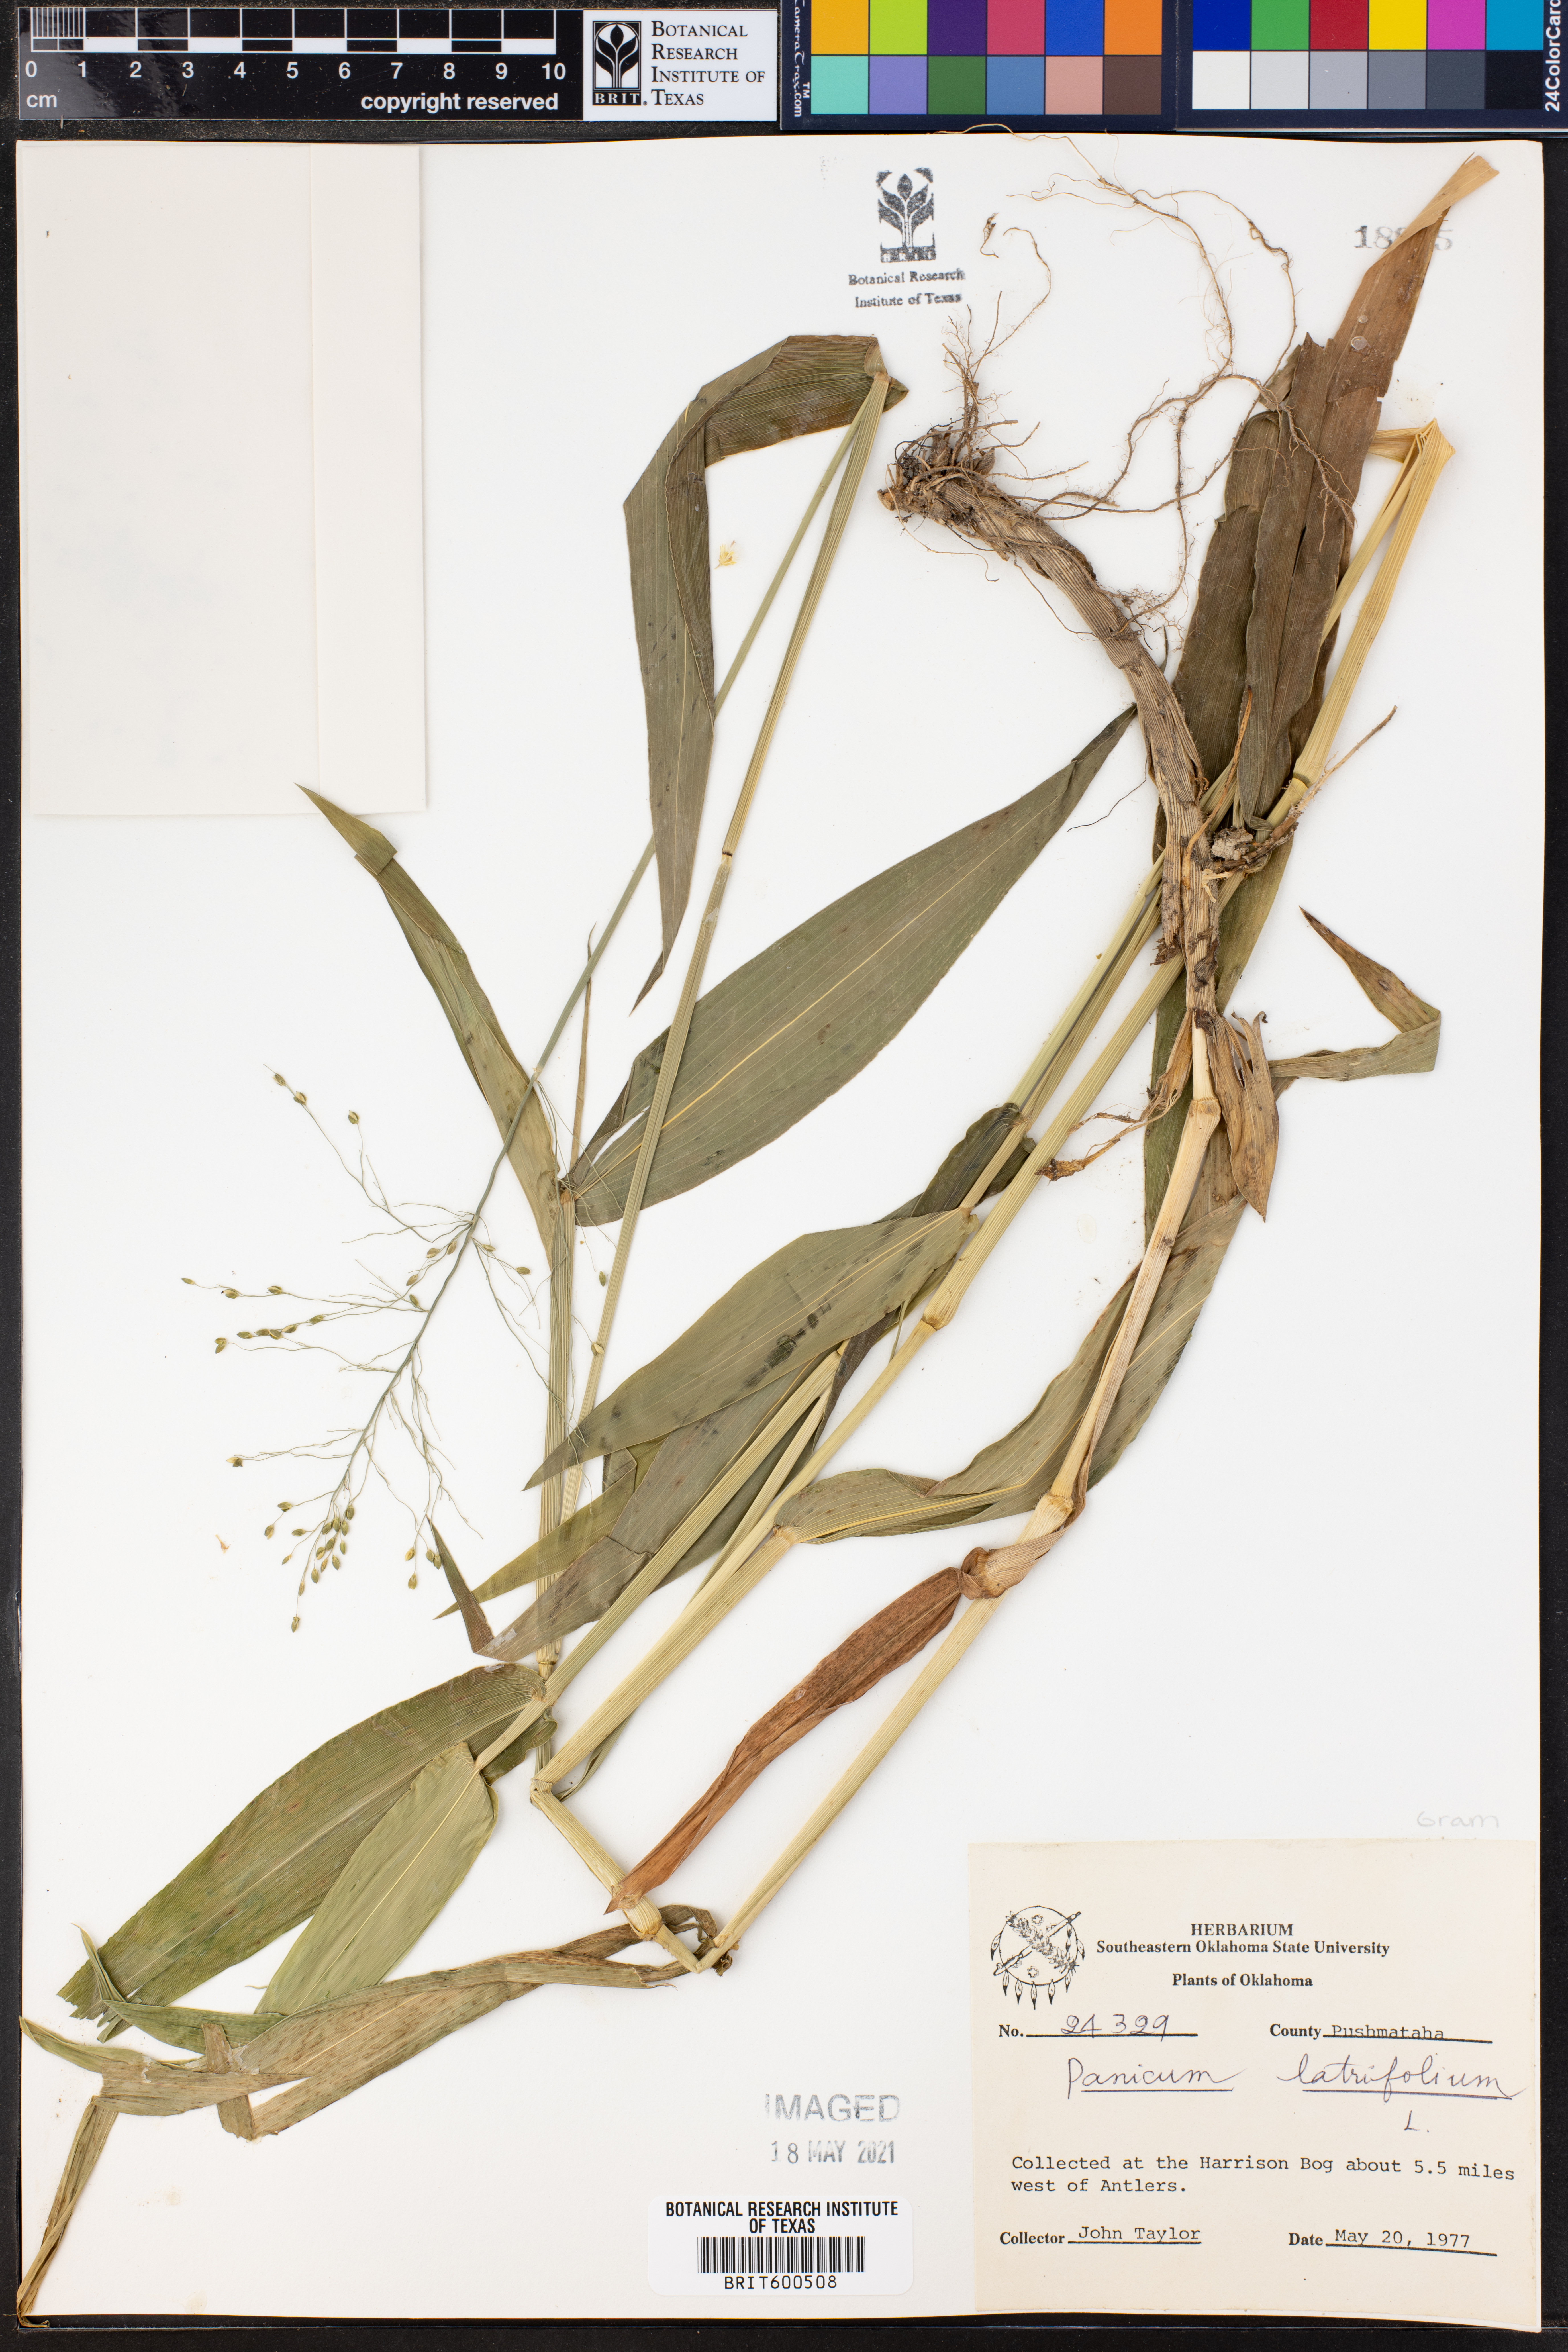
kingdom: Plantae
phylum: Tracheophyta
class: Liliopsida
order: Poales
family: Poaceae
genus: Dichanthelium
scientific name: Dichanthelium latifolium
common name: Broad-leaved panicgrass
